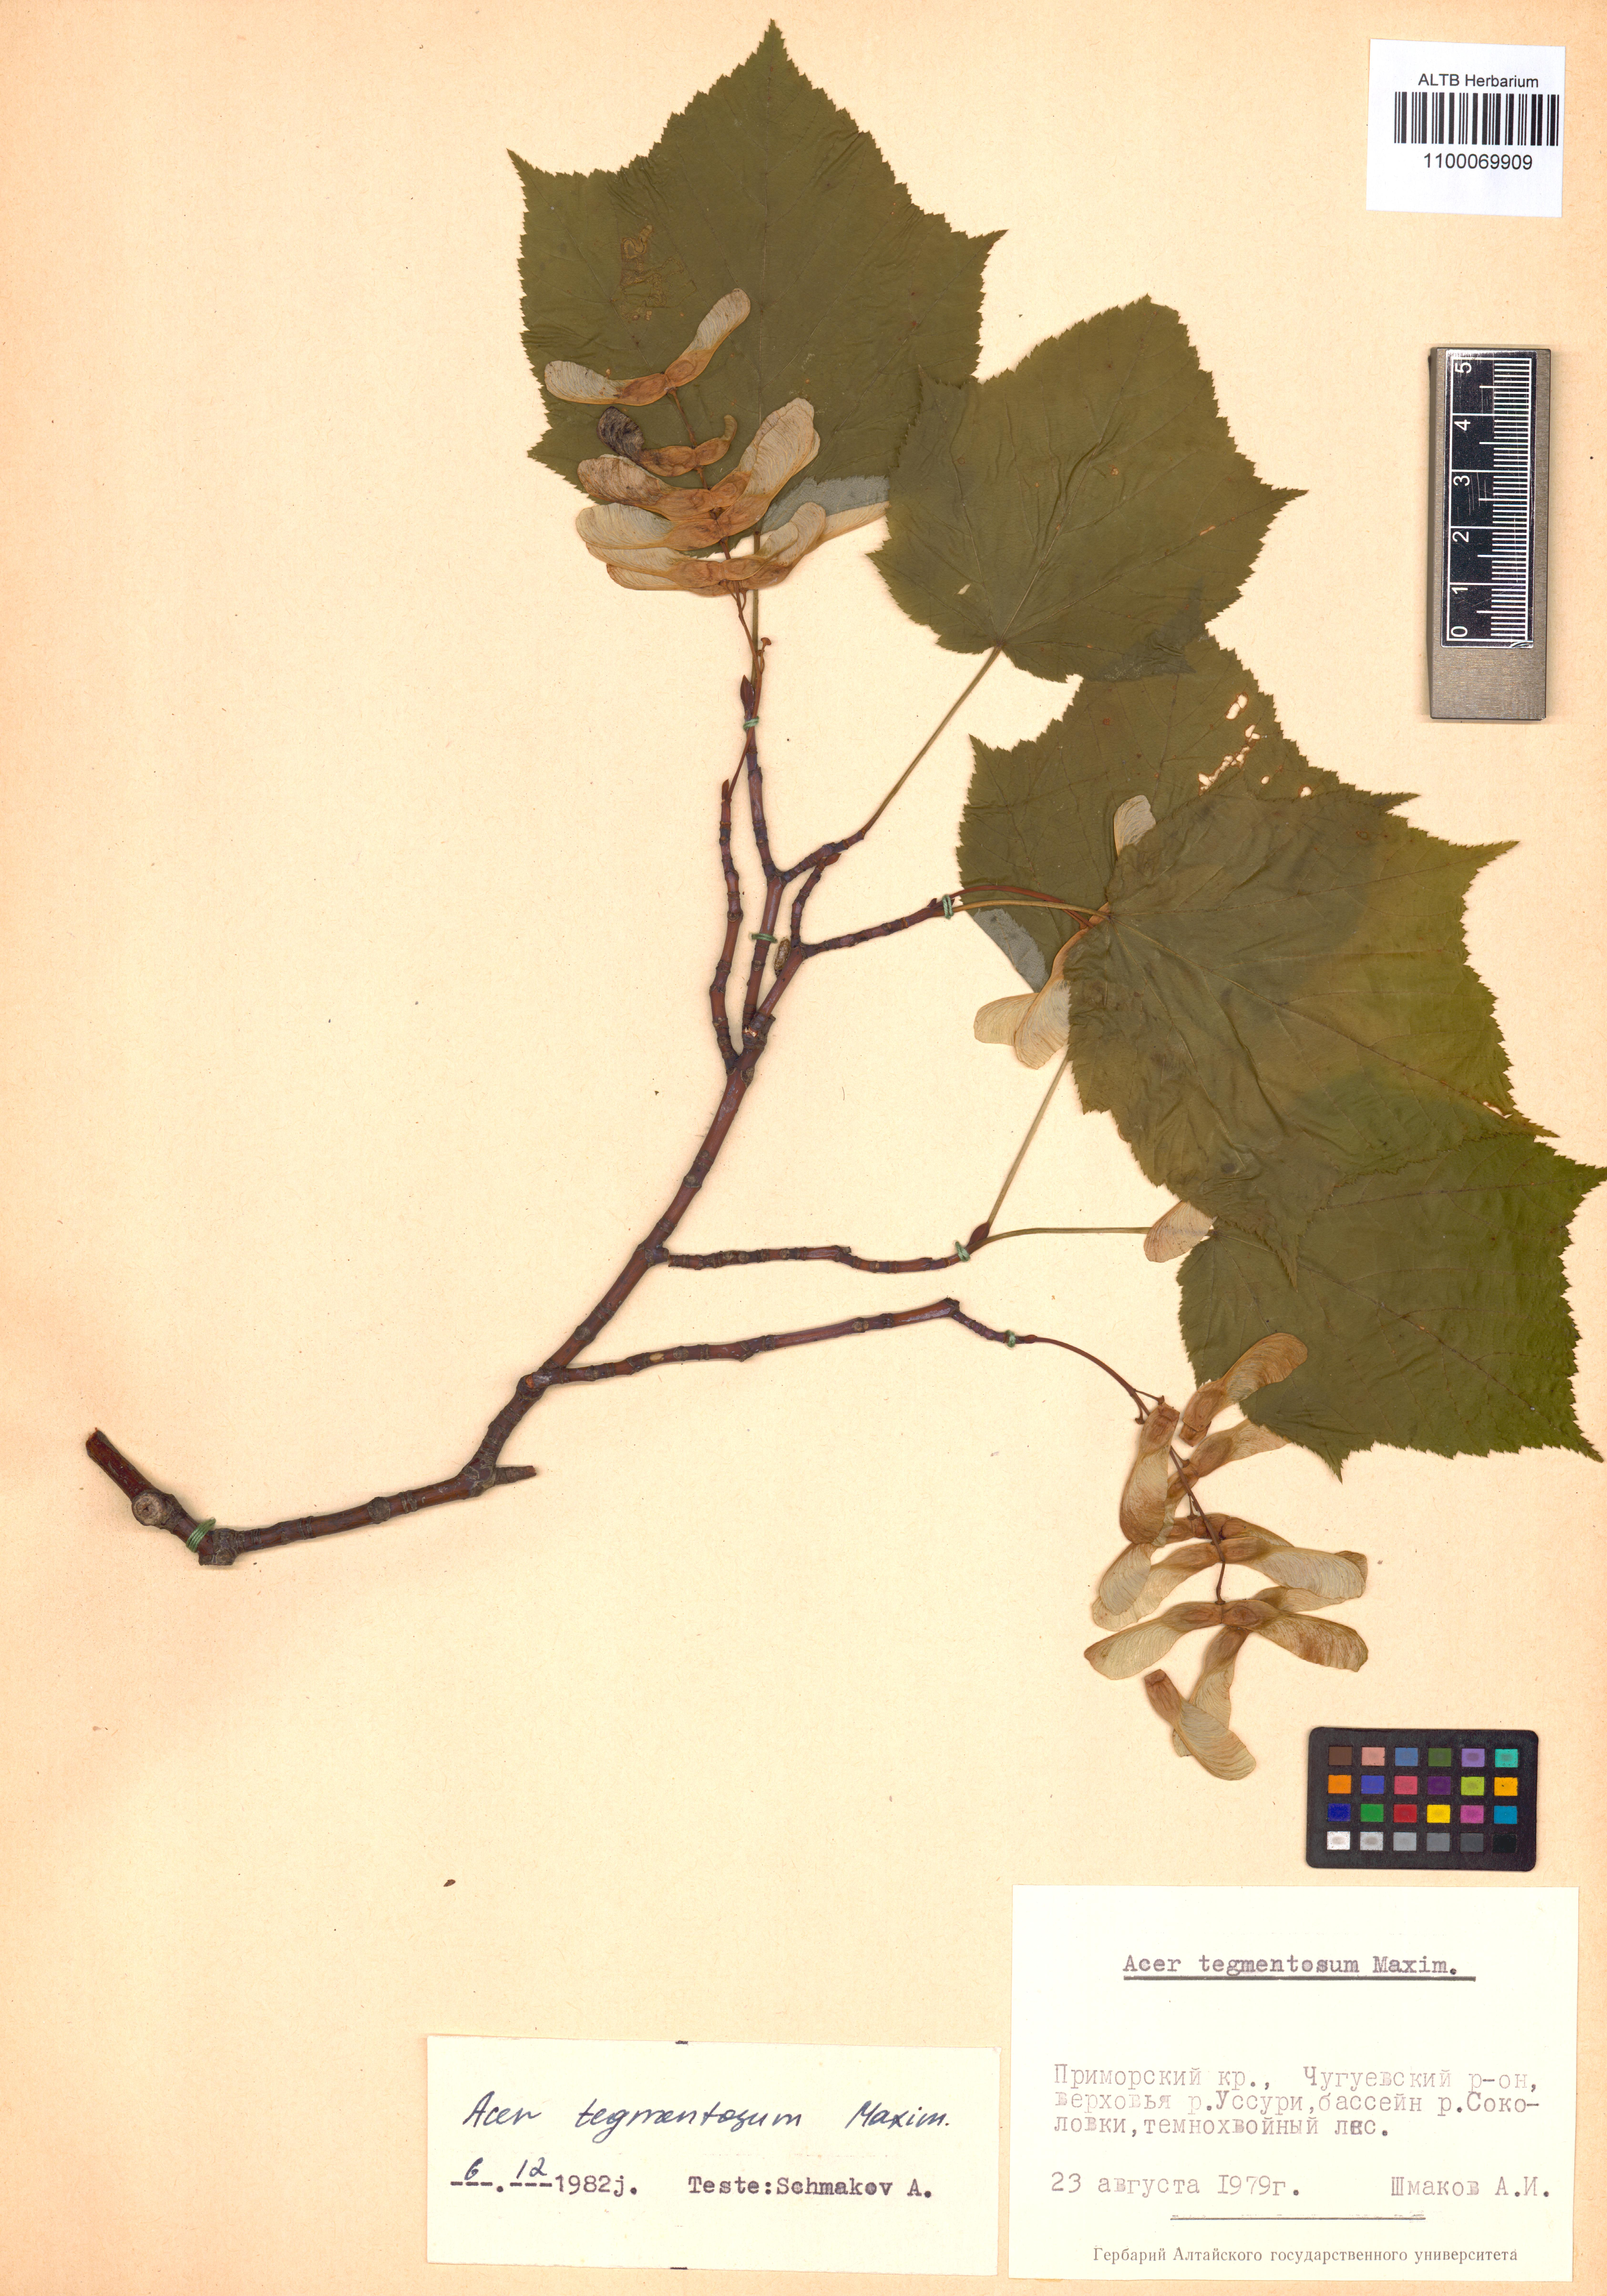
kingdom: Plantae
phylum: Tracheophyta
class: Magnoliopsida
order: Sapindales
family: Sapindaceae
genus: Acer
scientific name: Acer tegmentosum
